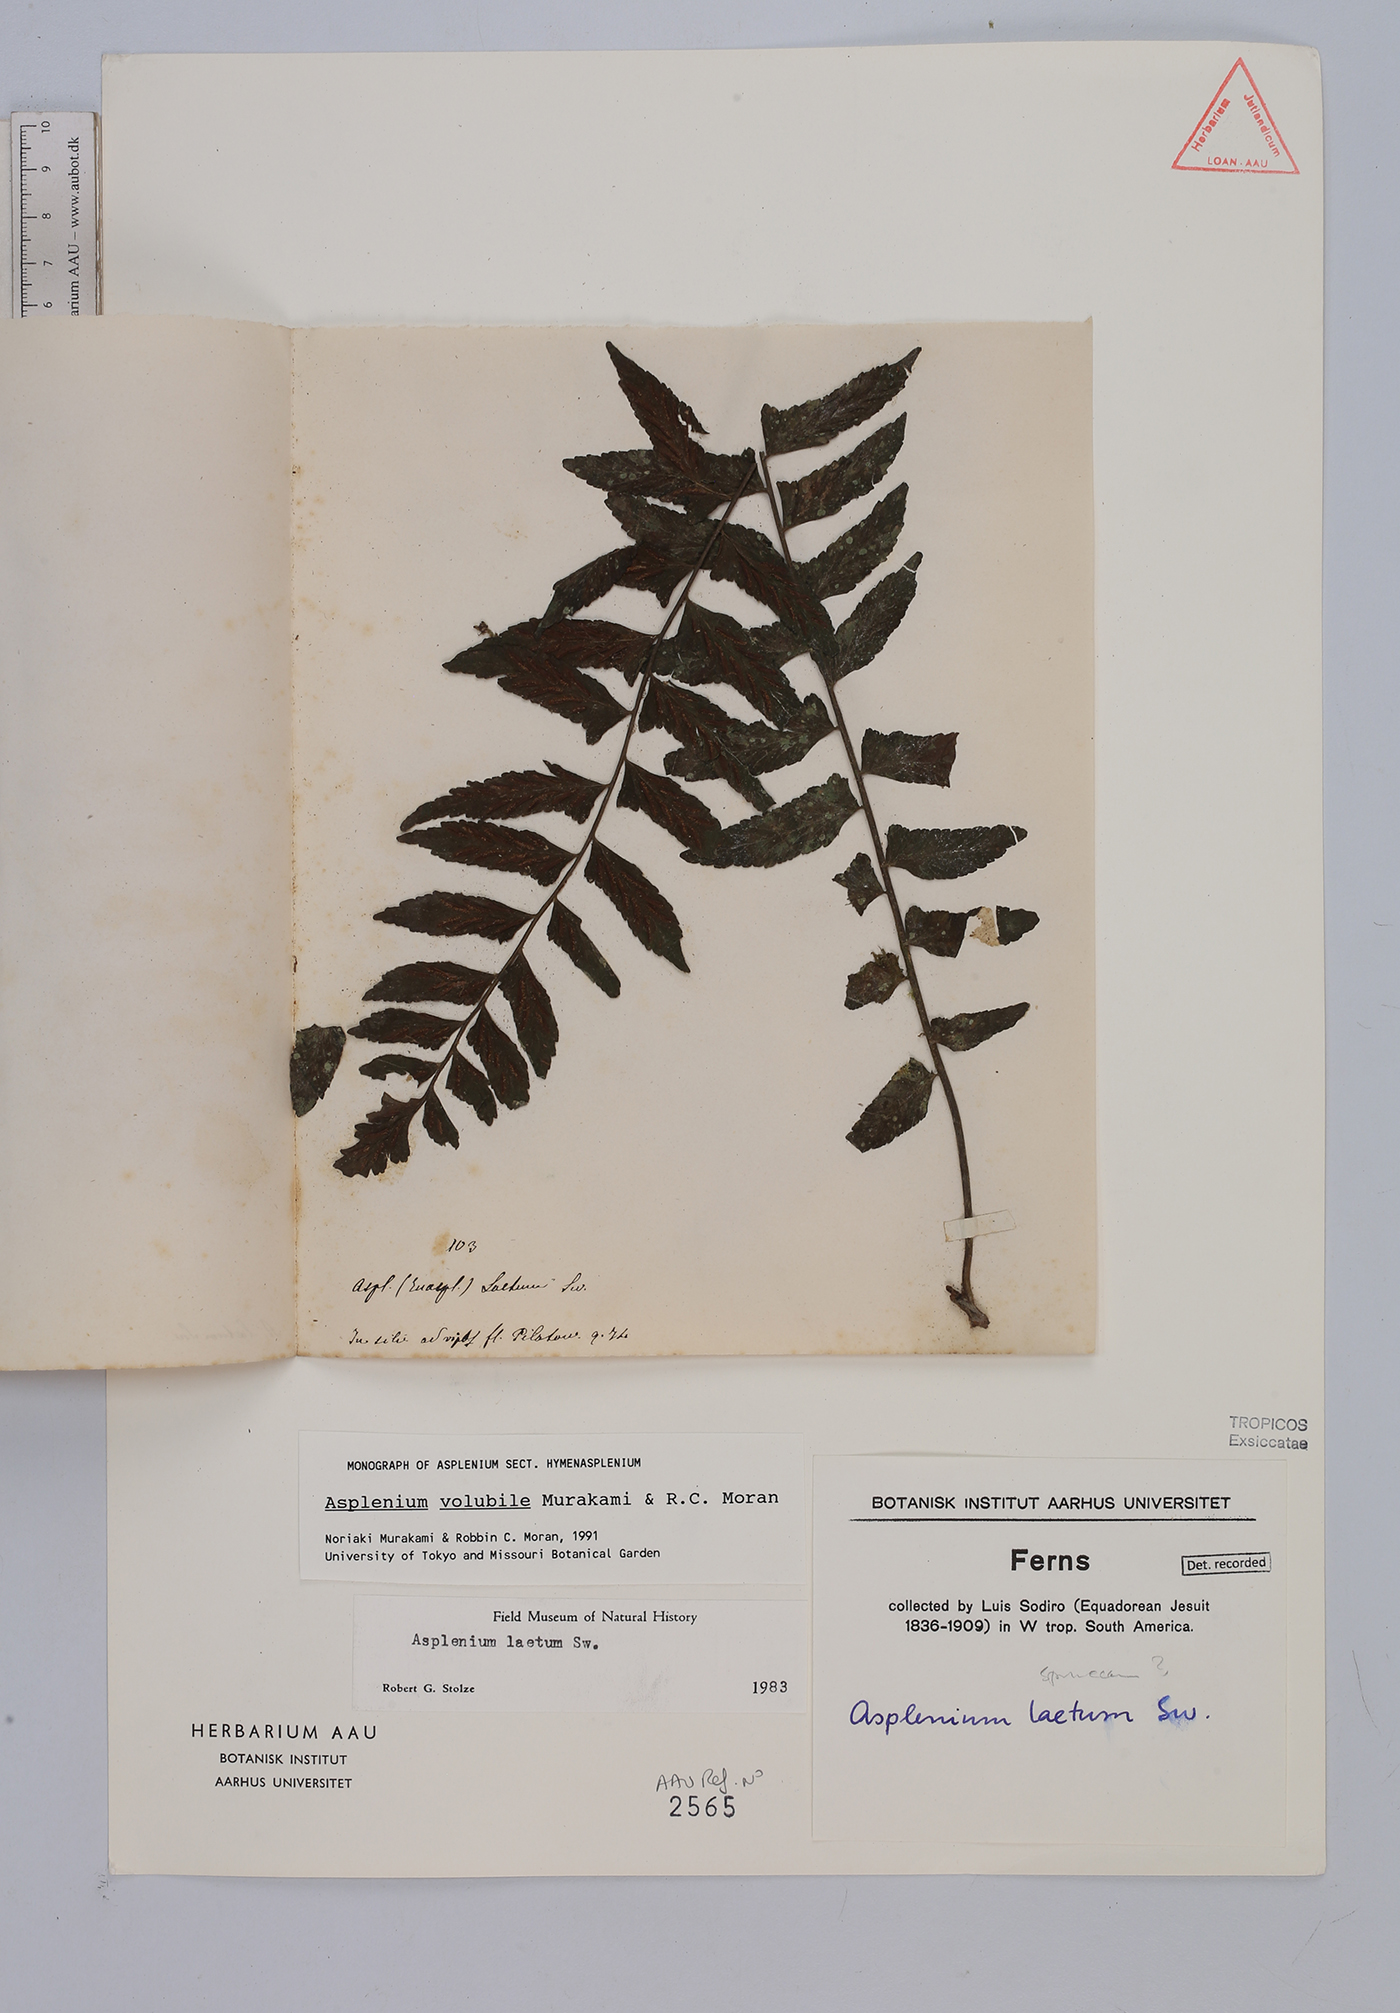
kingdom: Plantae
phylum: Tracheophyta
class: Polypodiopsida
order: Polypodiales
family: Aspleniaceae
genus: Hymenasplenium
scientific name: Hymenasplenium volubile
